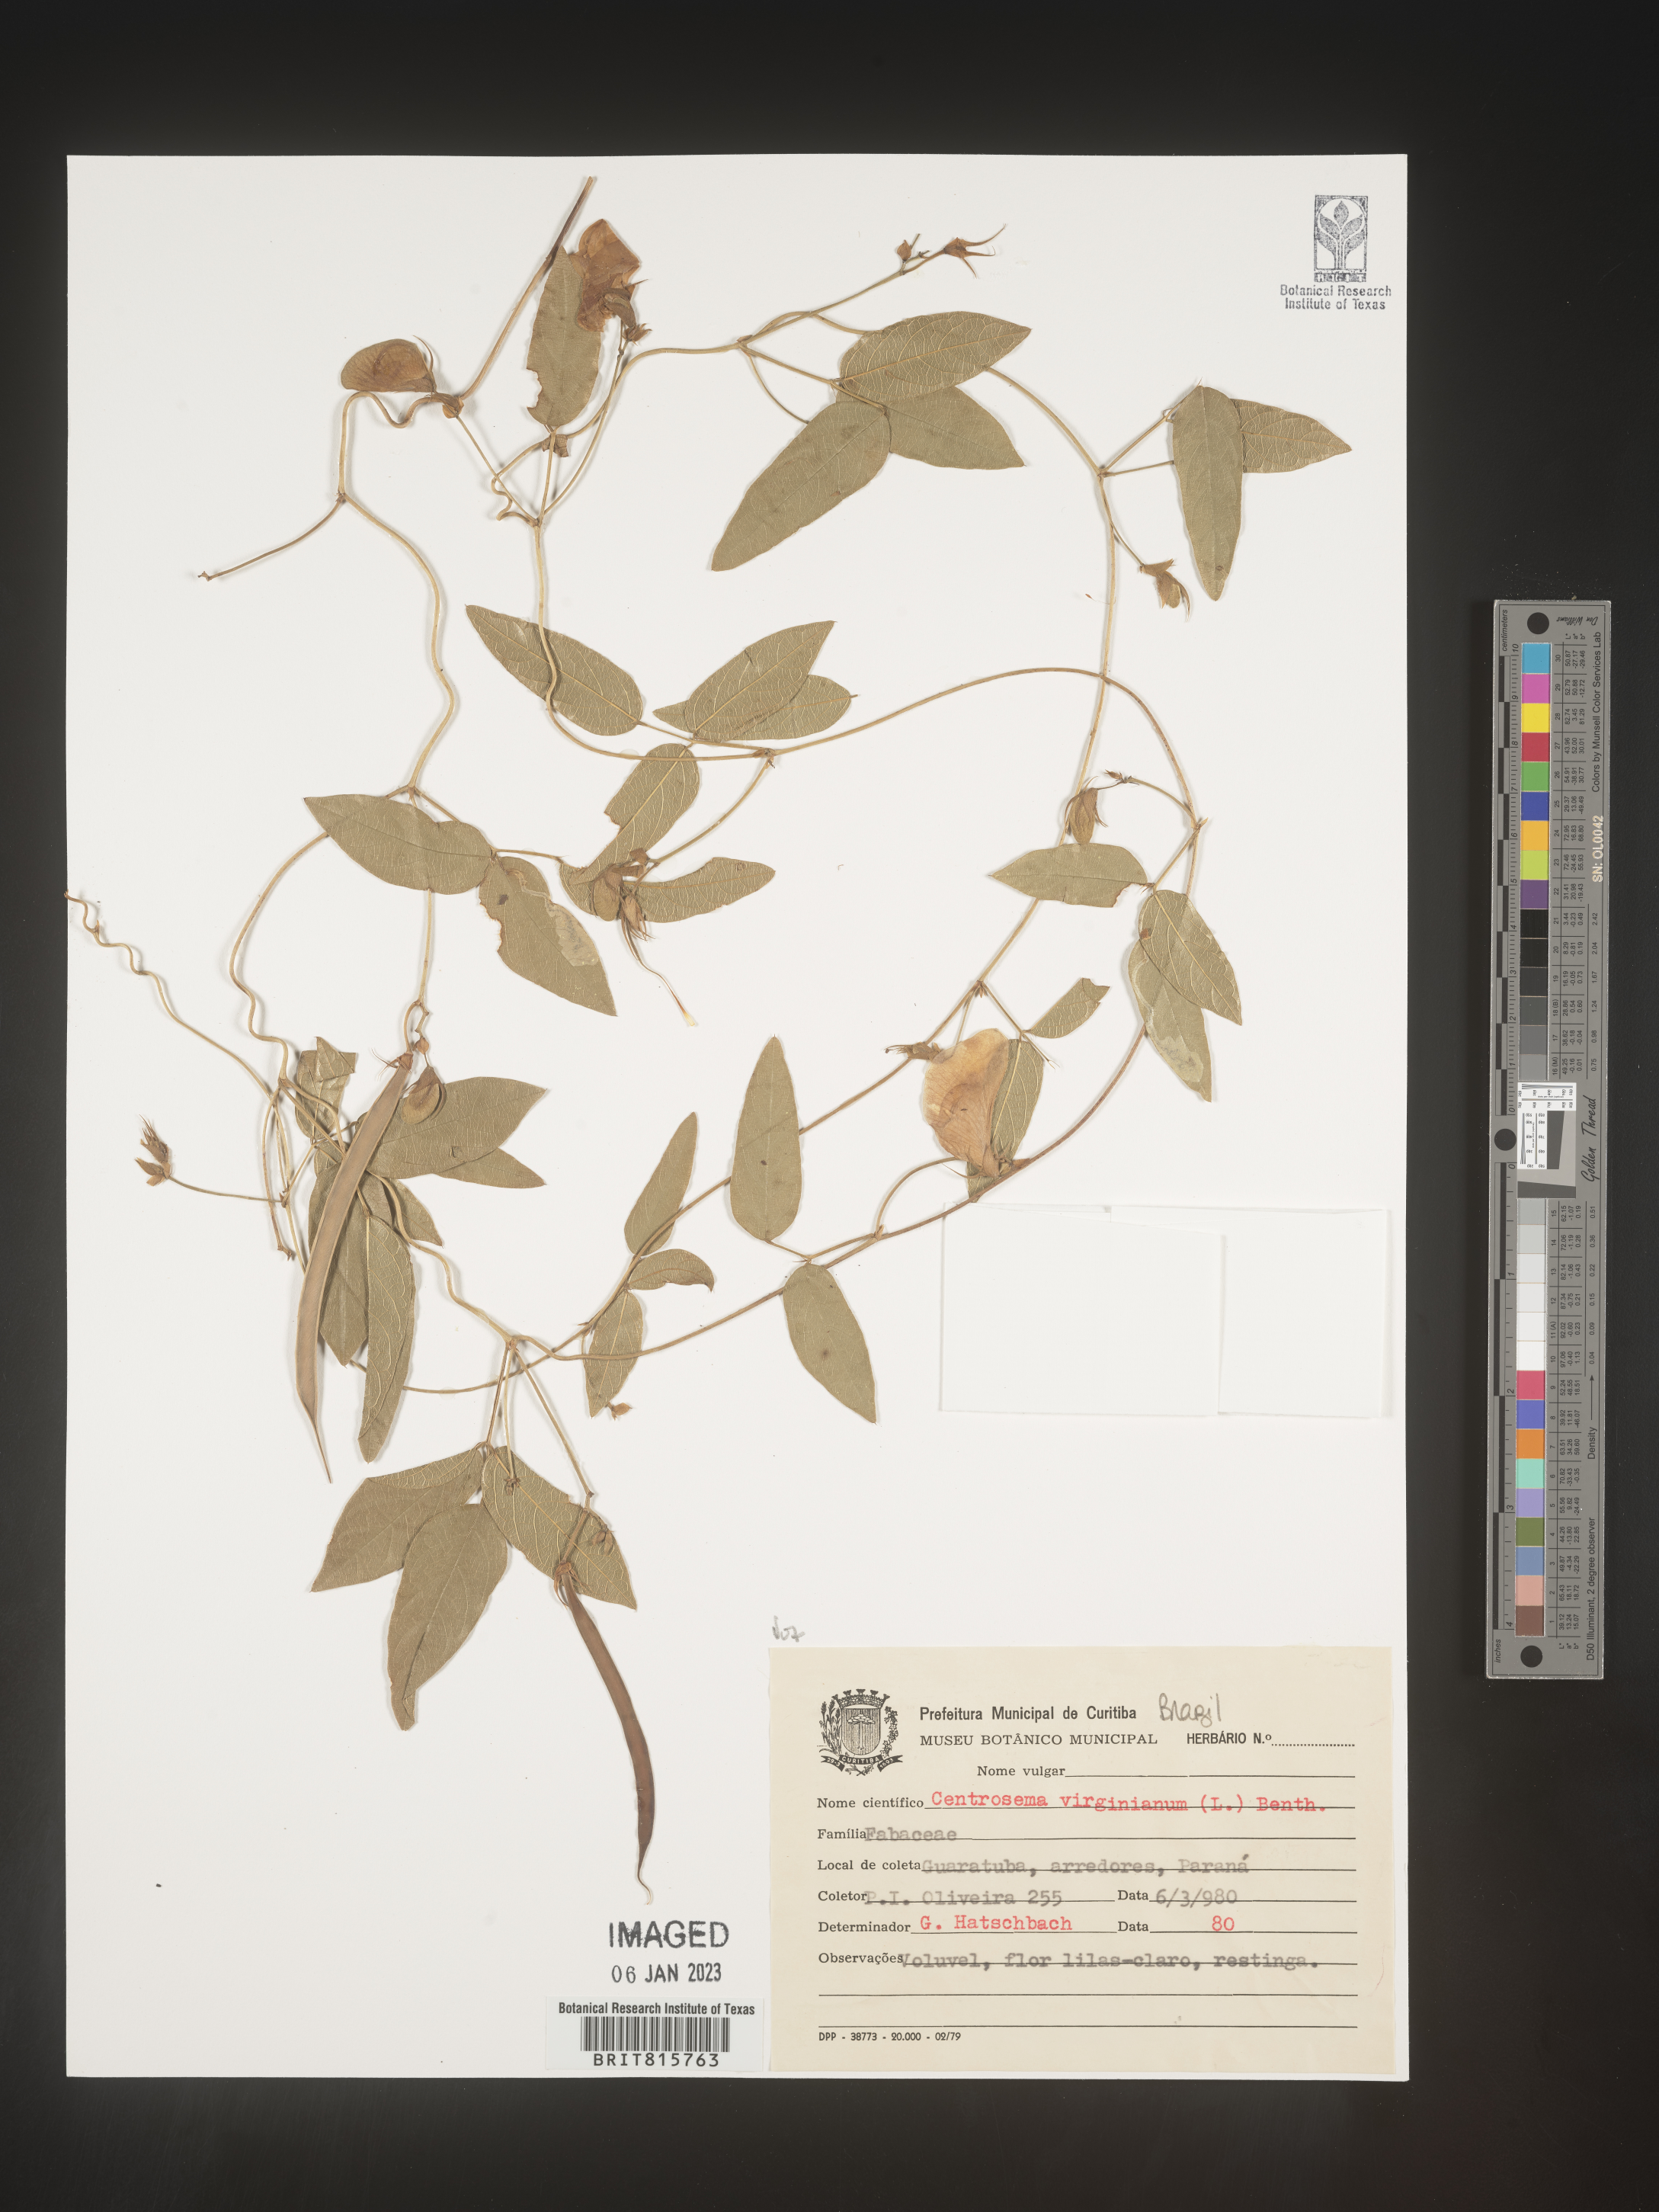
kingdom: Plantae
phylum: Tracheophyta
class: Magnoliopsida
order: Fabales
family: Fabaceae
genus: Centrosema
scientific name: Centrosema
